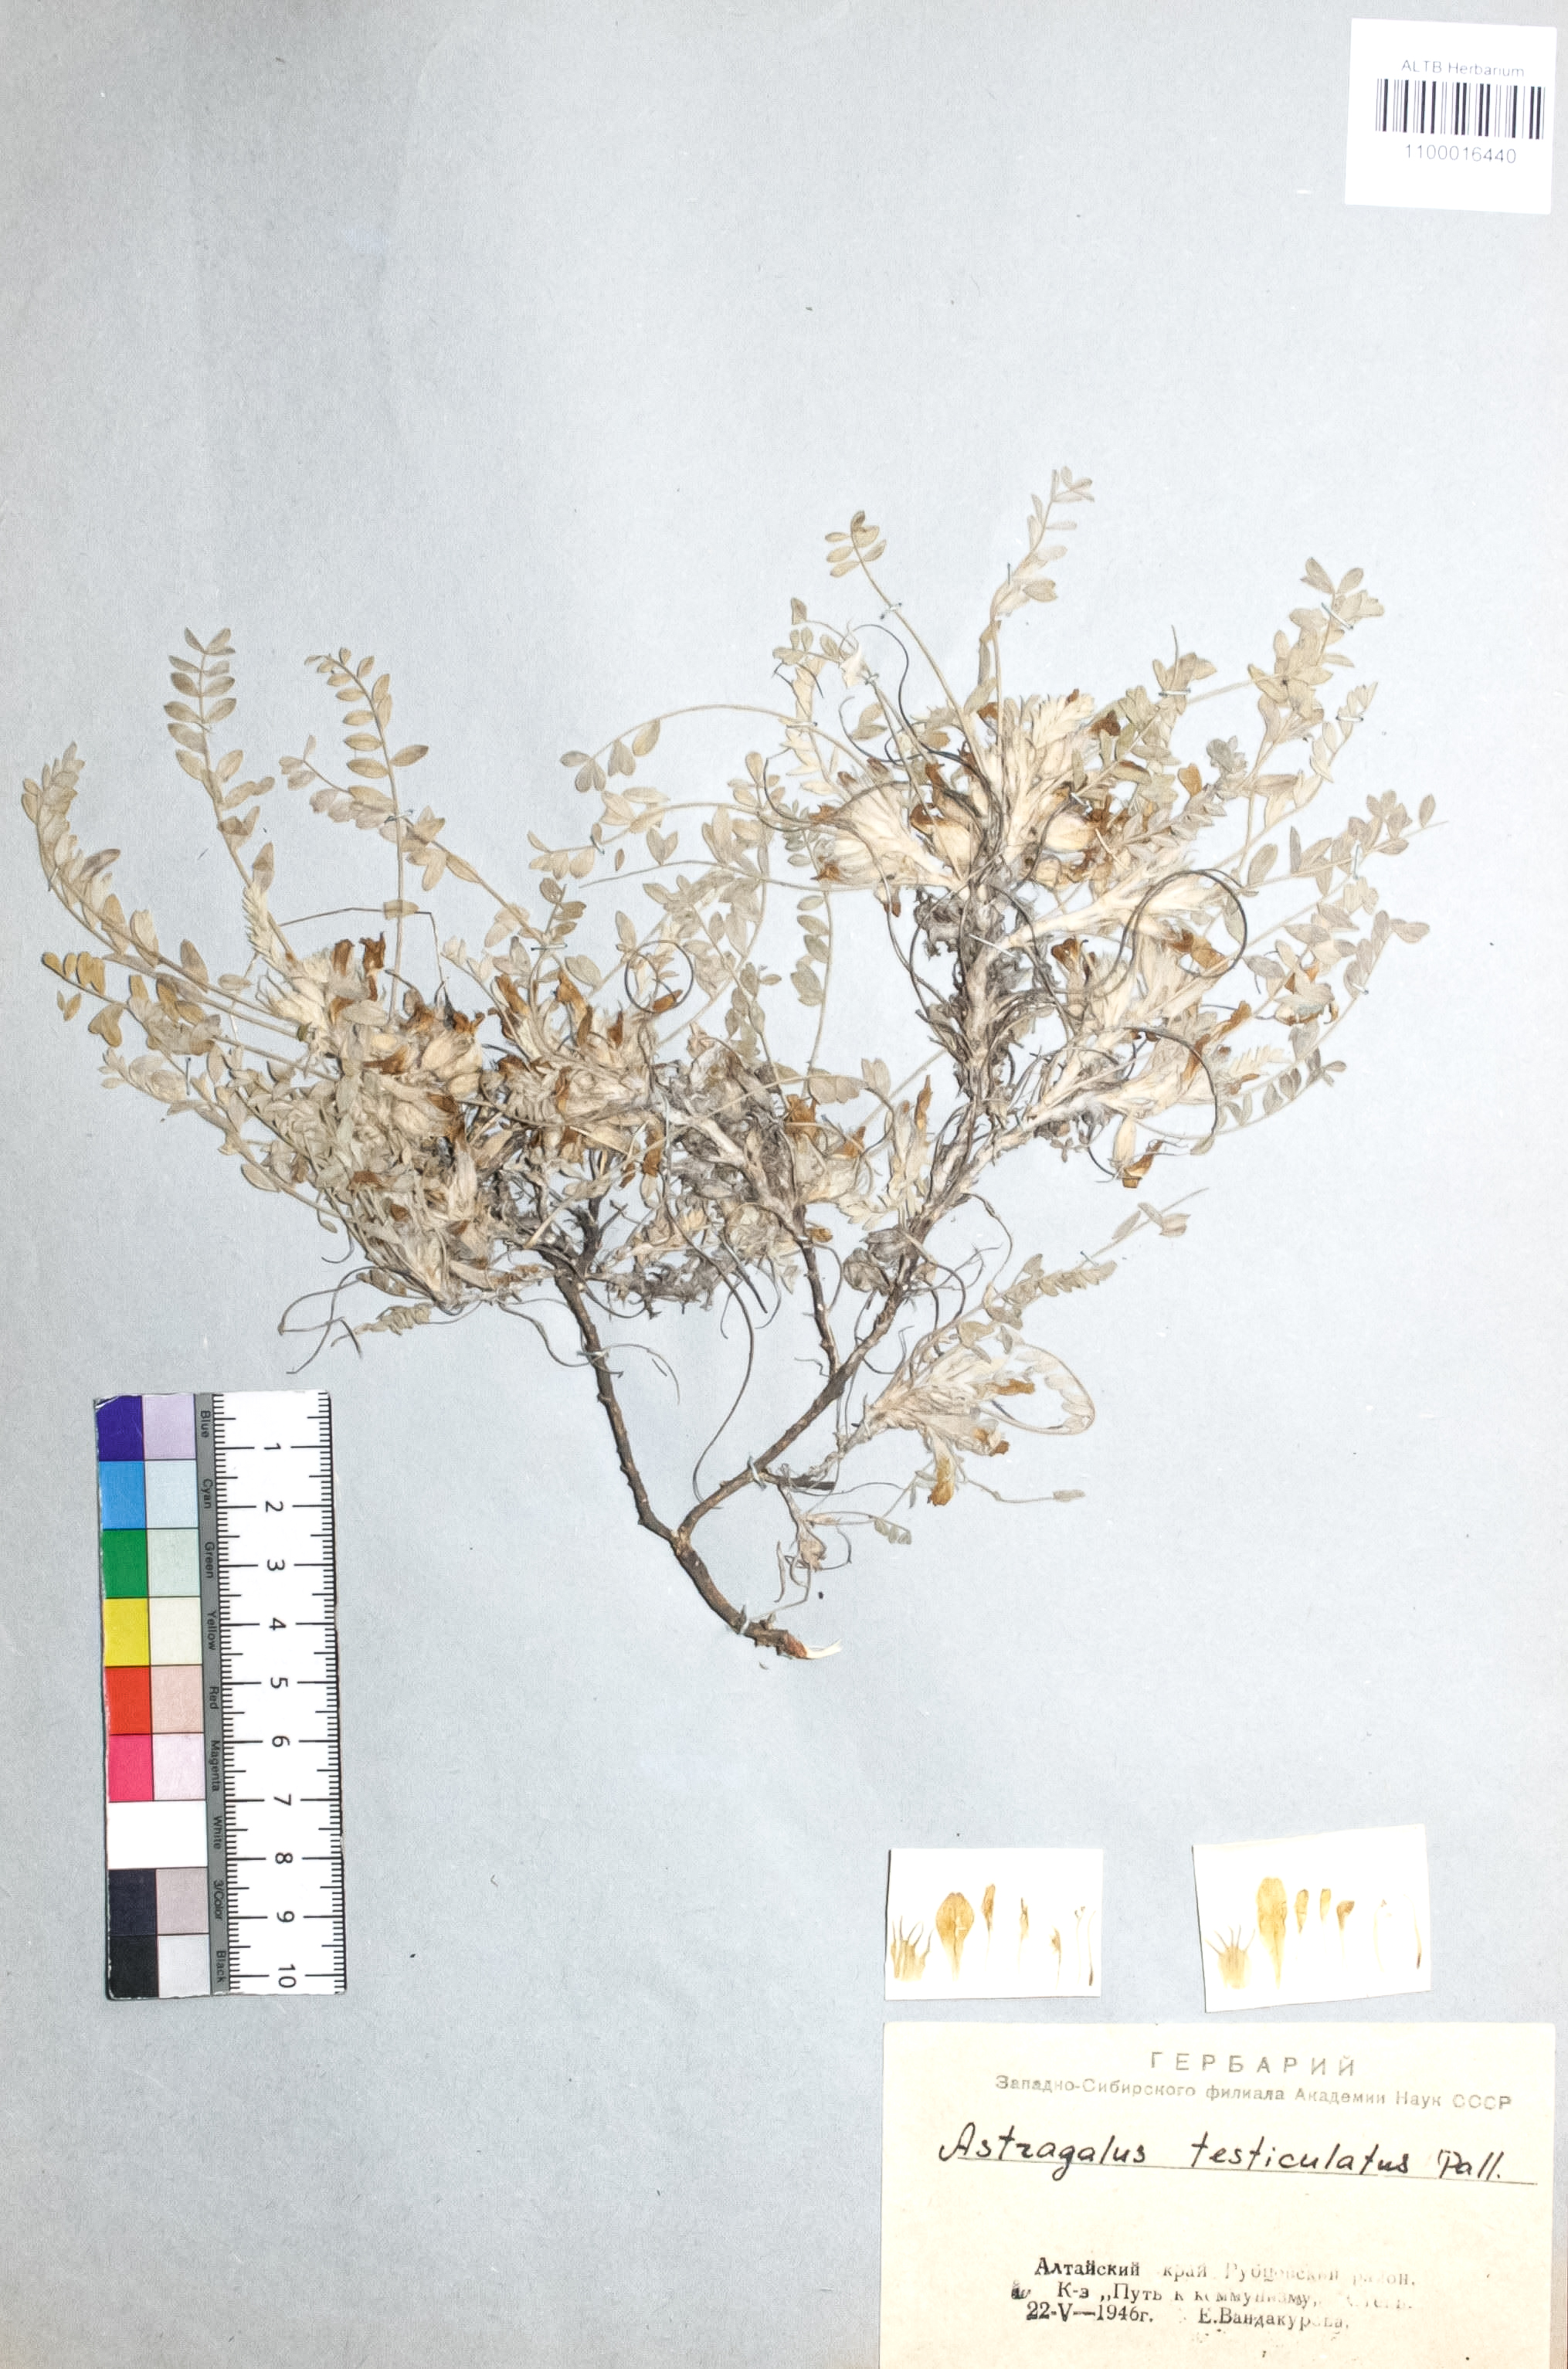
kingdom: Plantae
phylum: Tracheophyta
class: Magnoliopsida
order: Fabales
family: Fabaceae
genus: Astragalus
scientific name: Astragalus testiculatus
